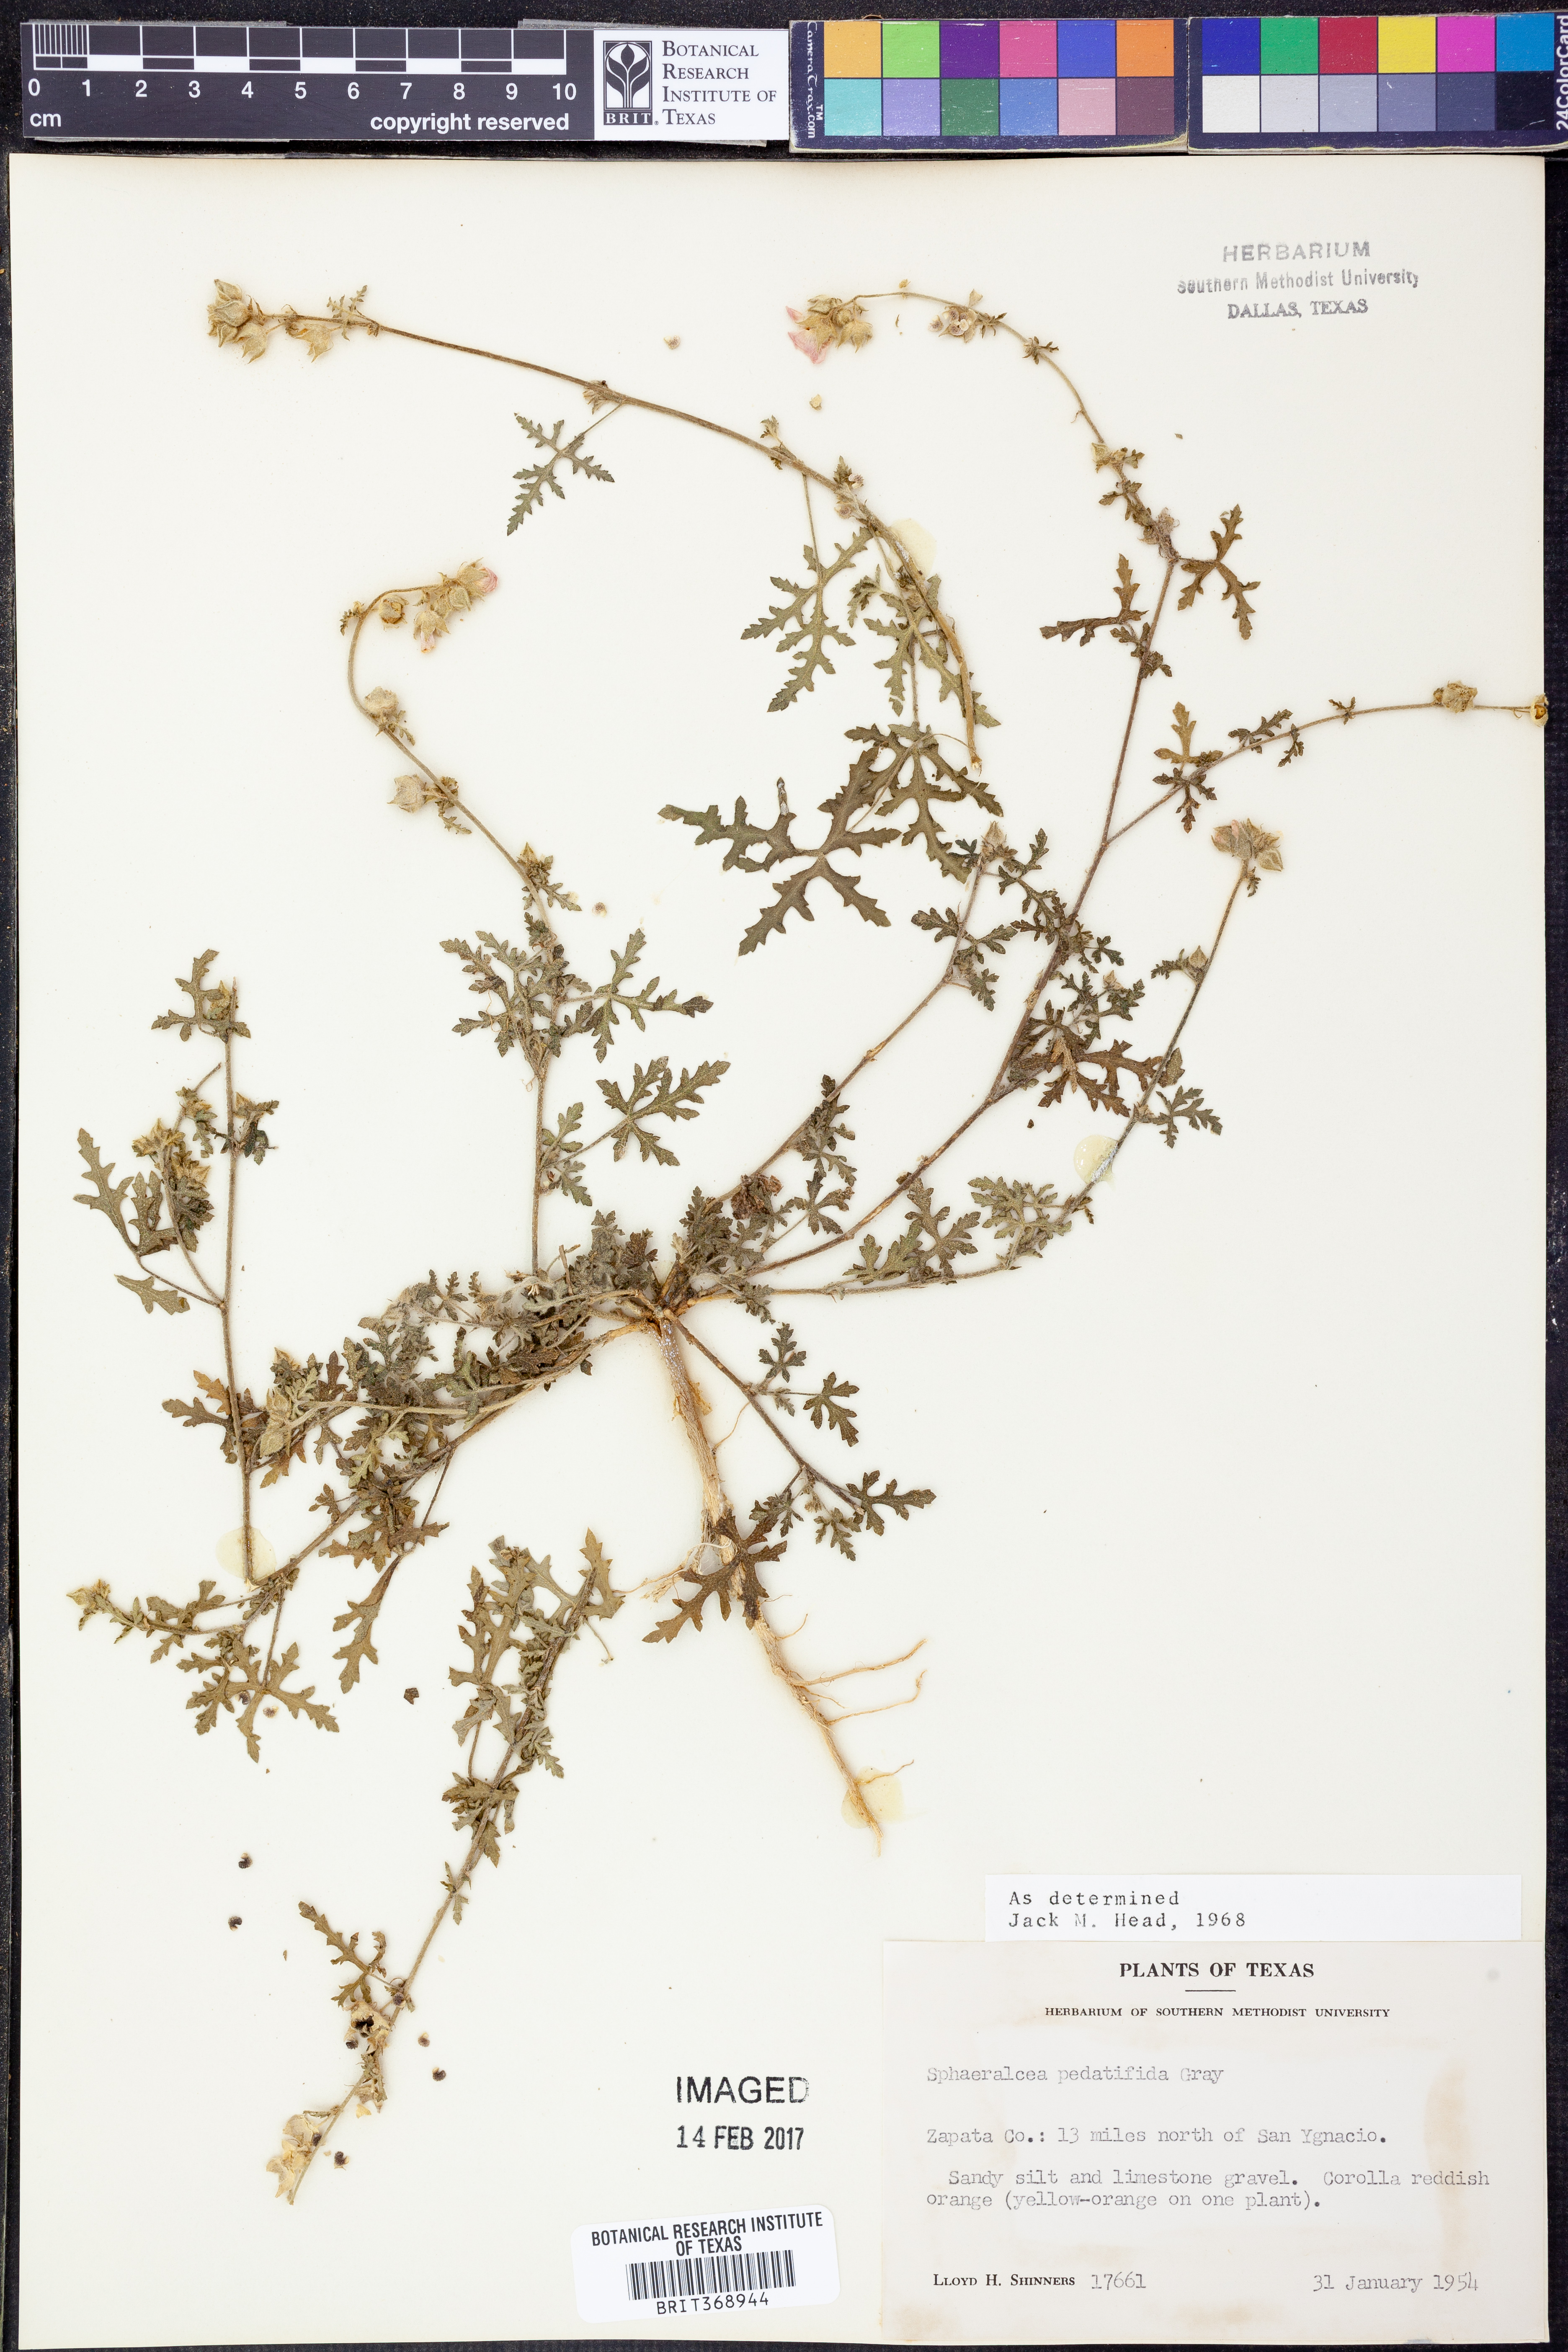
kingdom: Plantae
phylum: Tracheophyta
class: Magnoliopsida
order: Malvales
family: Malvaceae
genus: Sphaeralcea
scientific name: Sphaeralcea pedatifida
